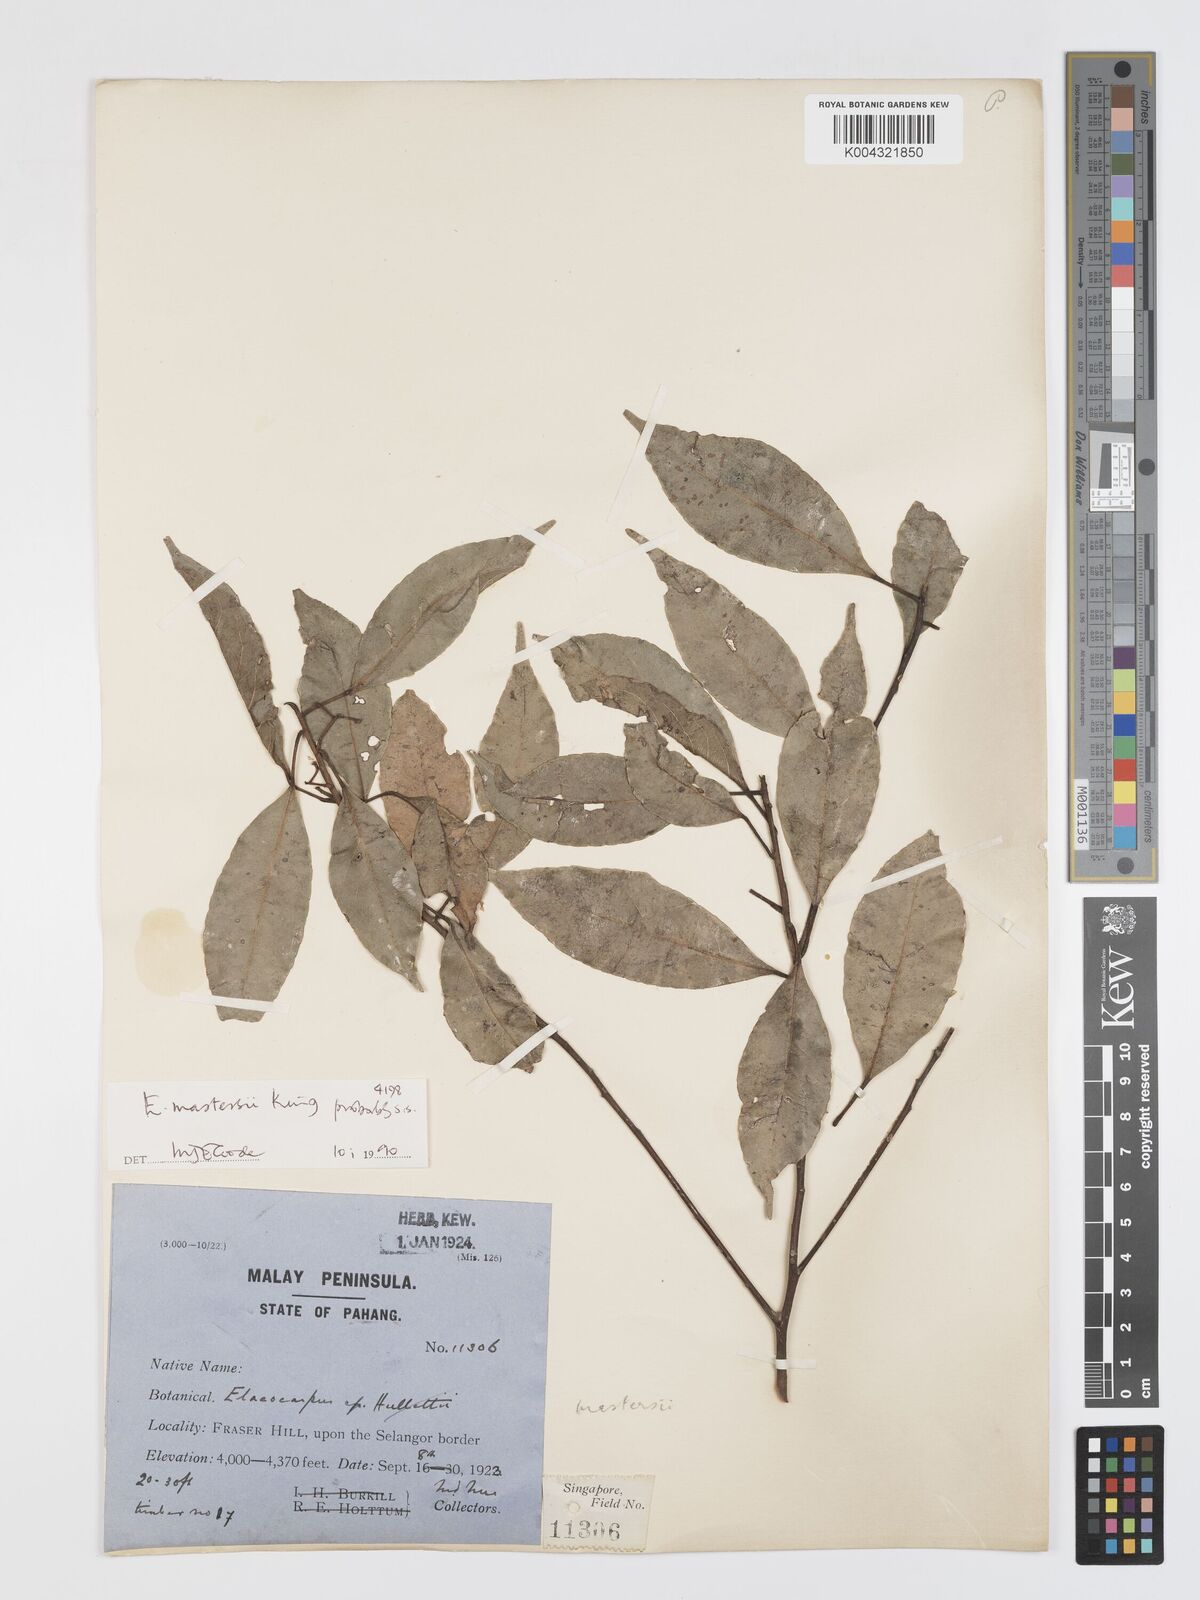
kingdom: Plantae
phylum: Tracheophyta
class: Magnoliopsida
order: Oxalidales
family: Elaeocarpaceae
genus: Elaeocarpus
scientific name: Elaeocarpus mastersii
